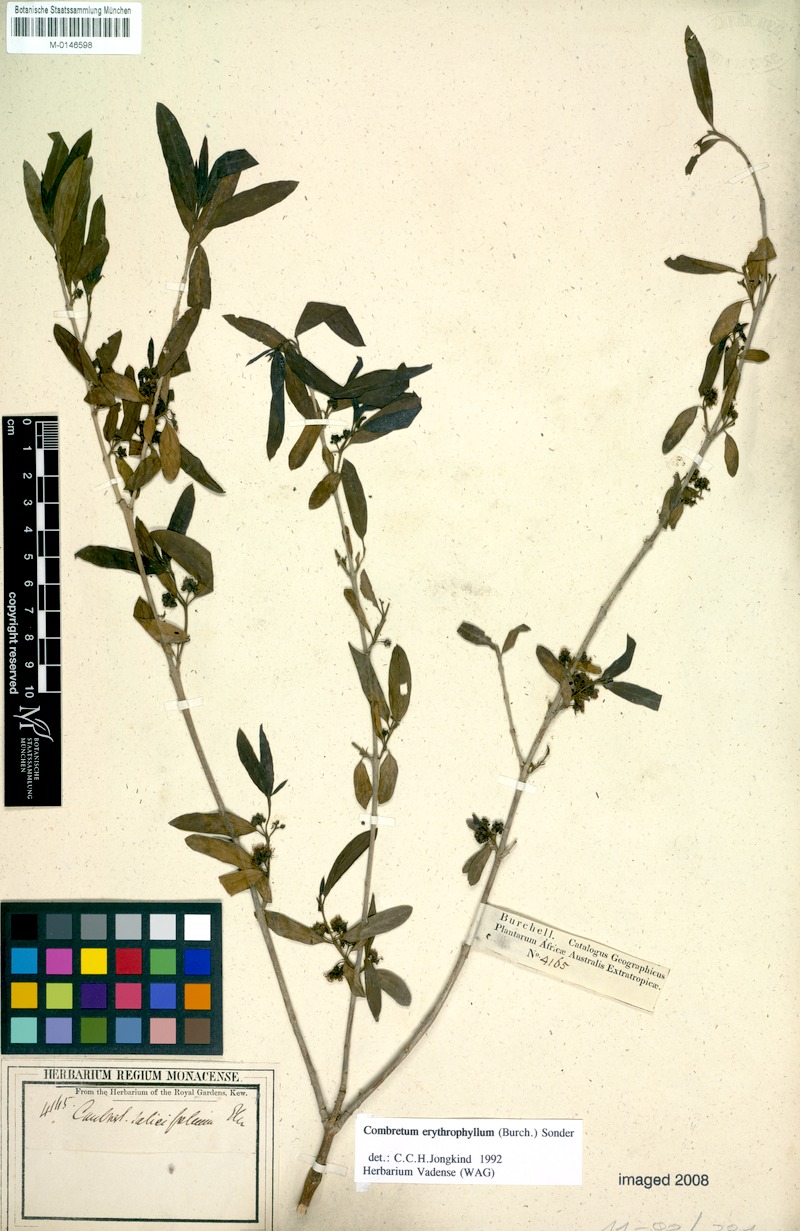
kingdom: Plantae
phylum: Tracheophyta
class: Magnoliopsida
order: Myrtales
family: Combretaceae
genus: Combretum
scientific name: Combretum erythrophyllum
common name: Bush-willow
